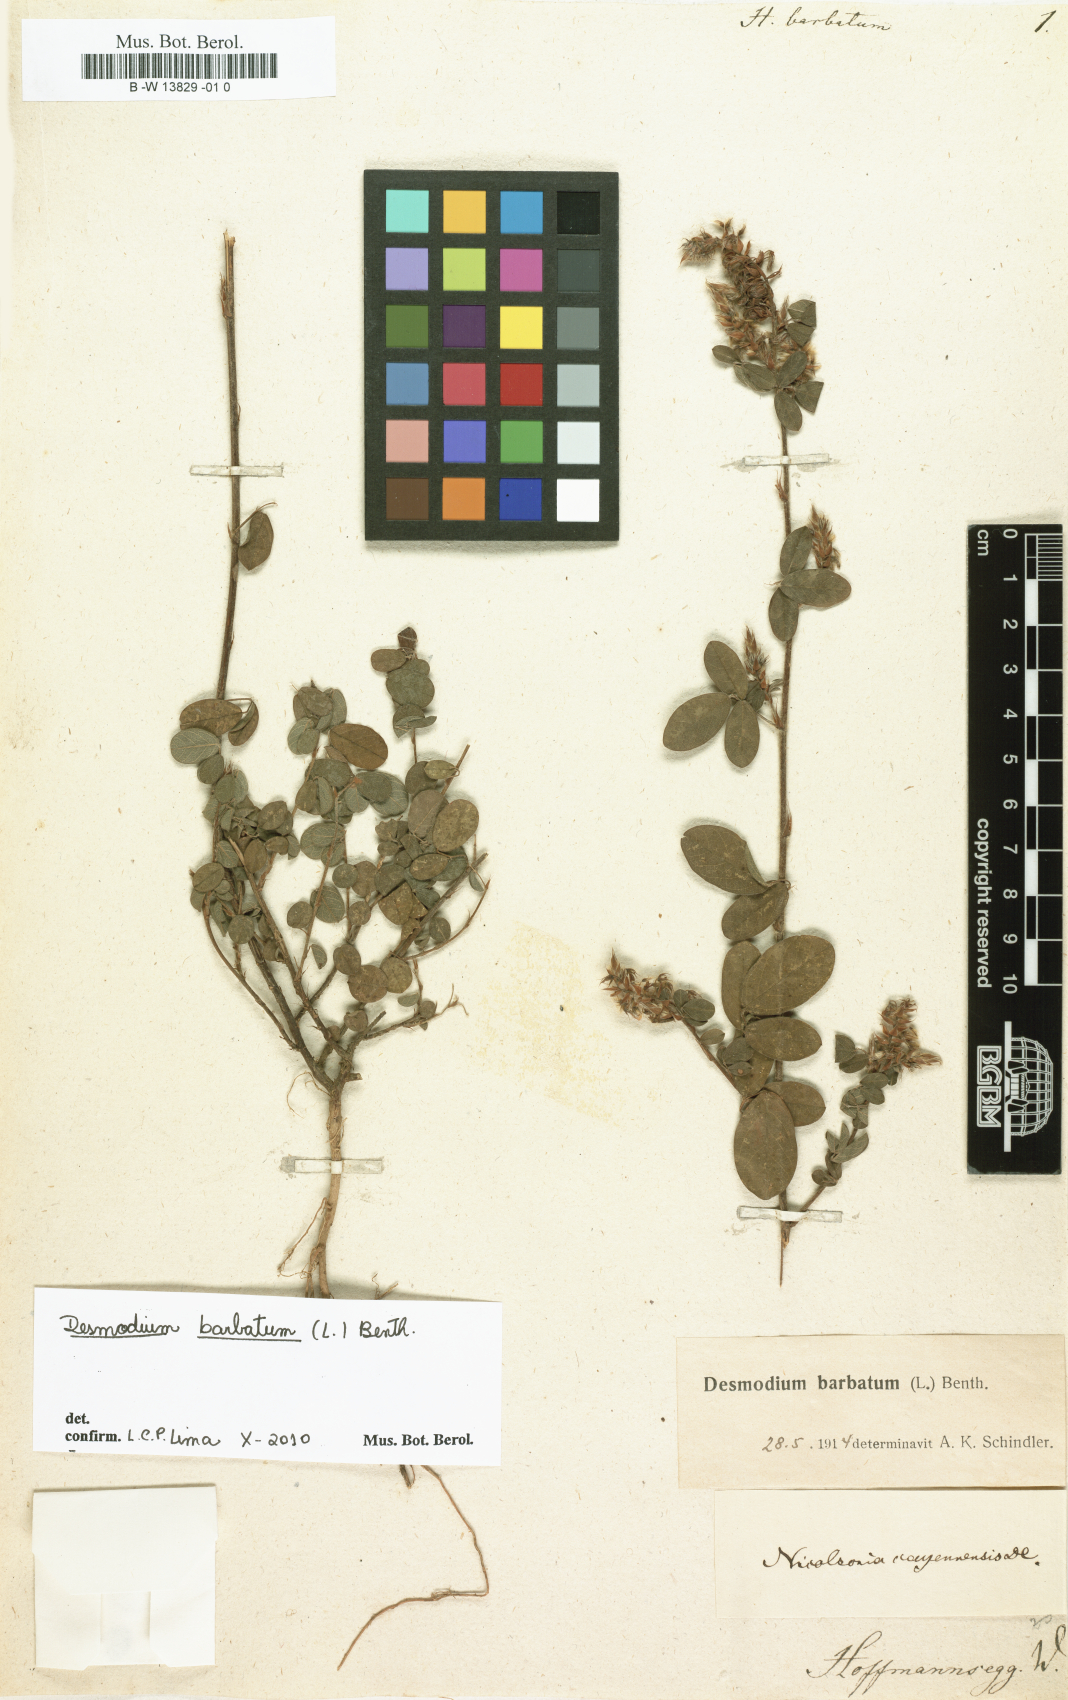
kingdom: Plantae
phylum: Tracheophyta
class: Magnoliopsida
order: Fabales
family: Fabaceae
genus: Grona
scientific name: Grona barbata
